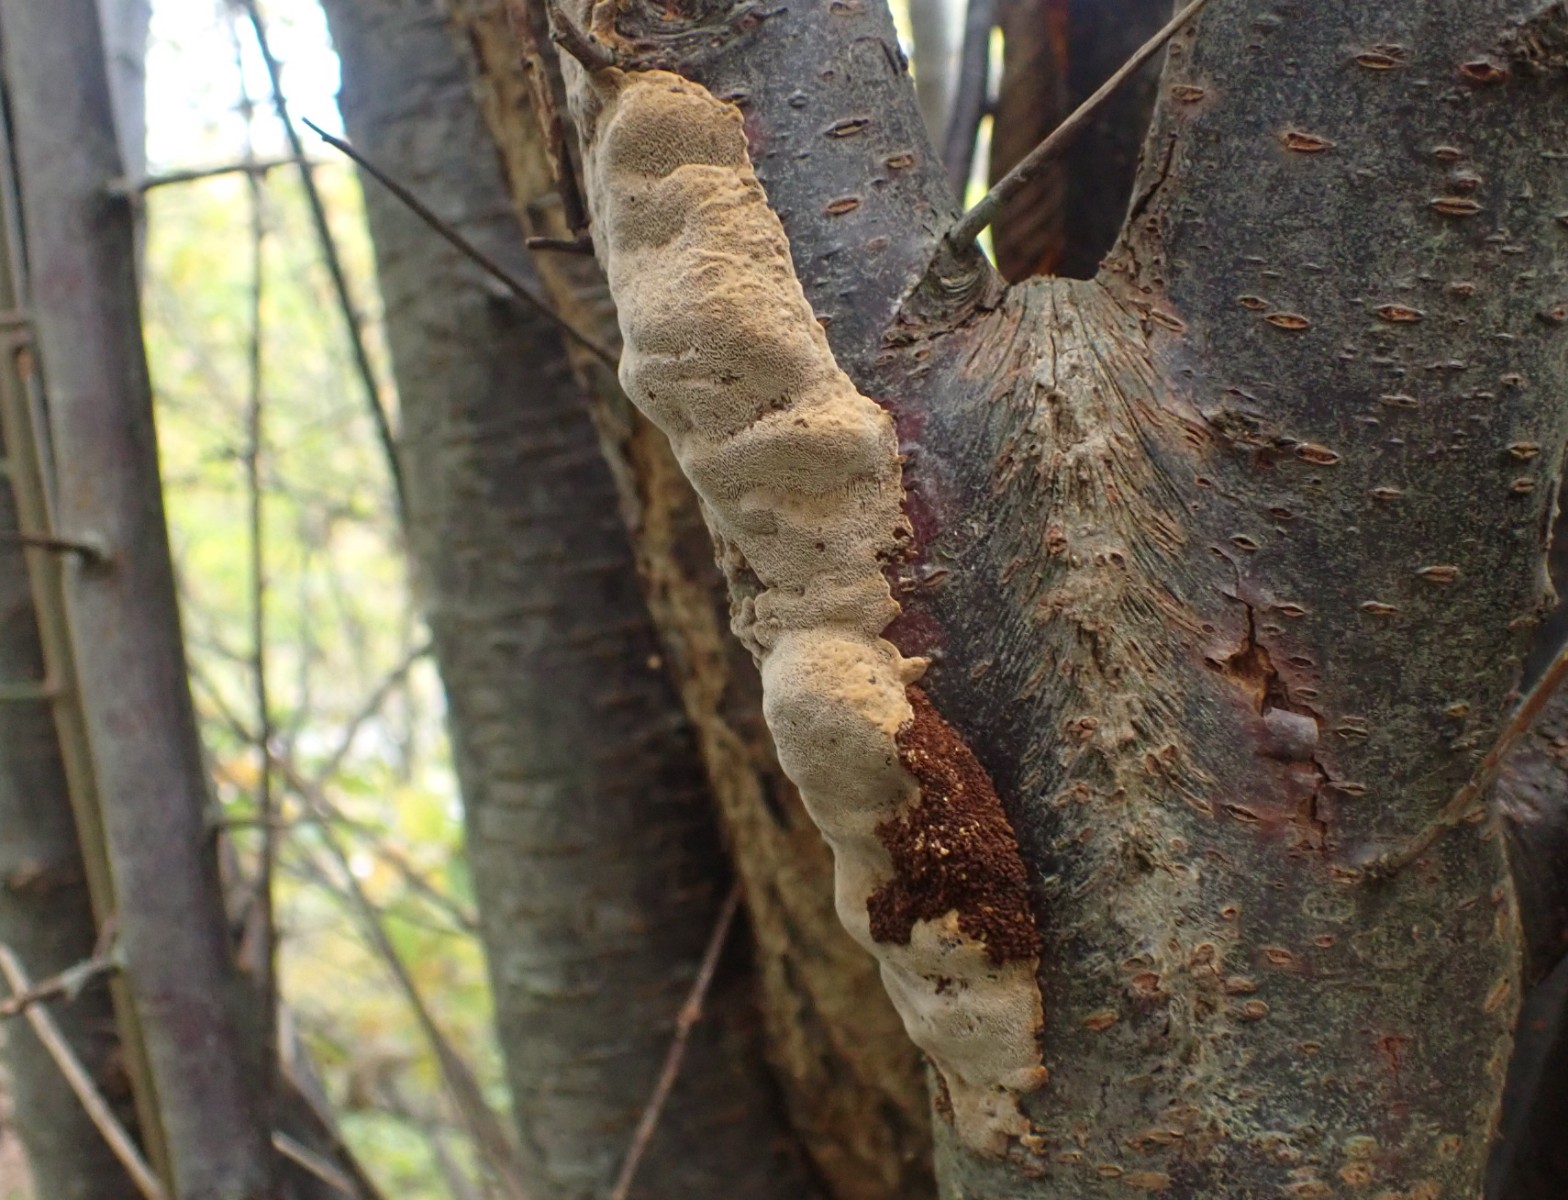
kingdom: Fungi
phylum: Basidiomycota
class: Agaricomycetes
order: Hymenochaetales
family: Hymenochaetaceae
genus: Phellinus
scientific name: Phellinus pomaceus
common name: blomme-ildporesvamp
